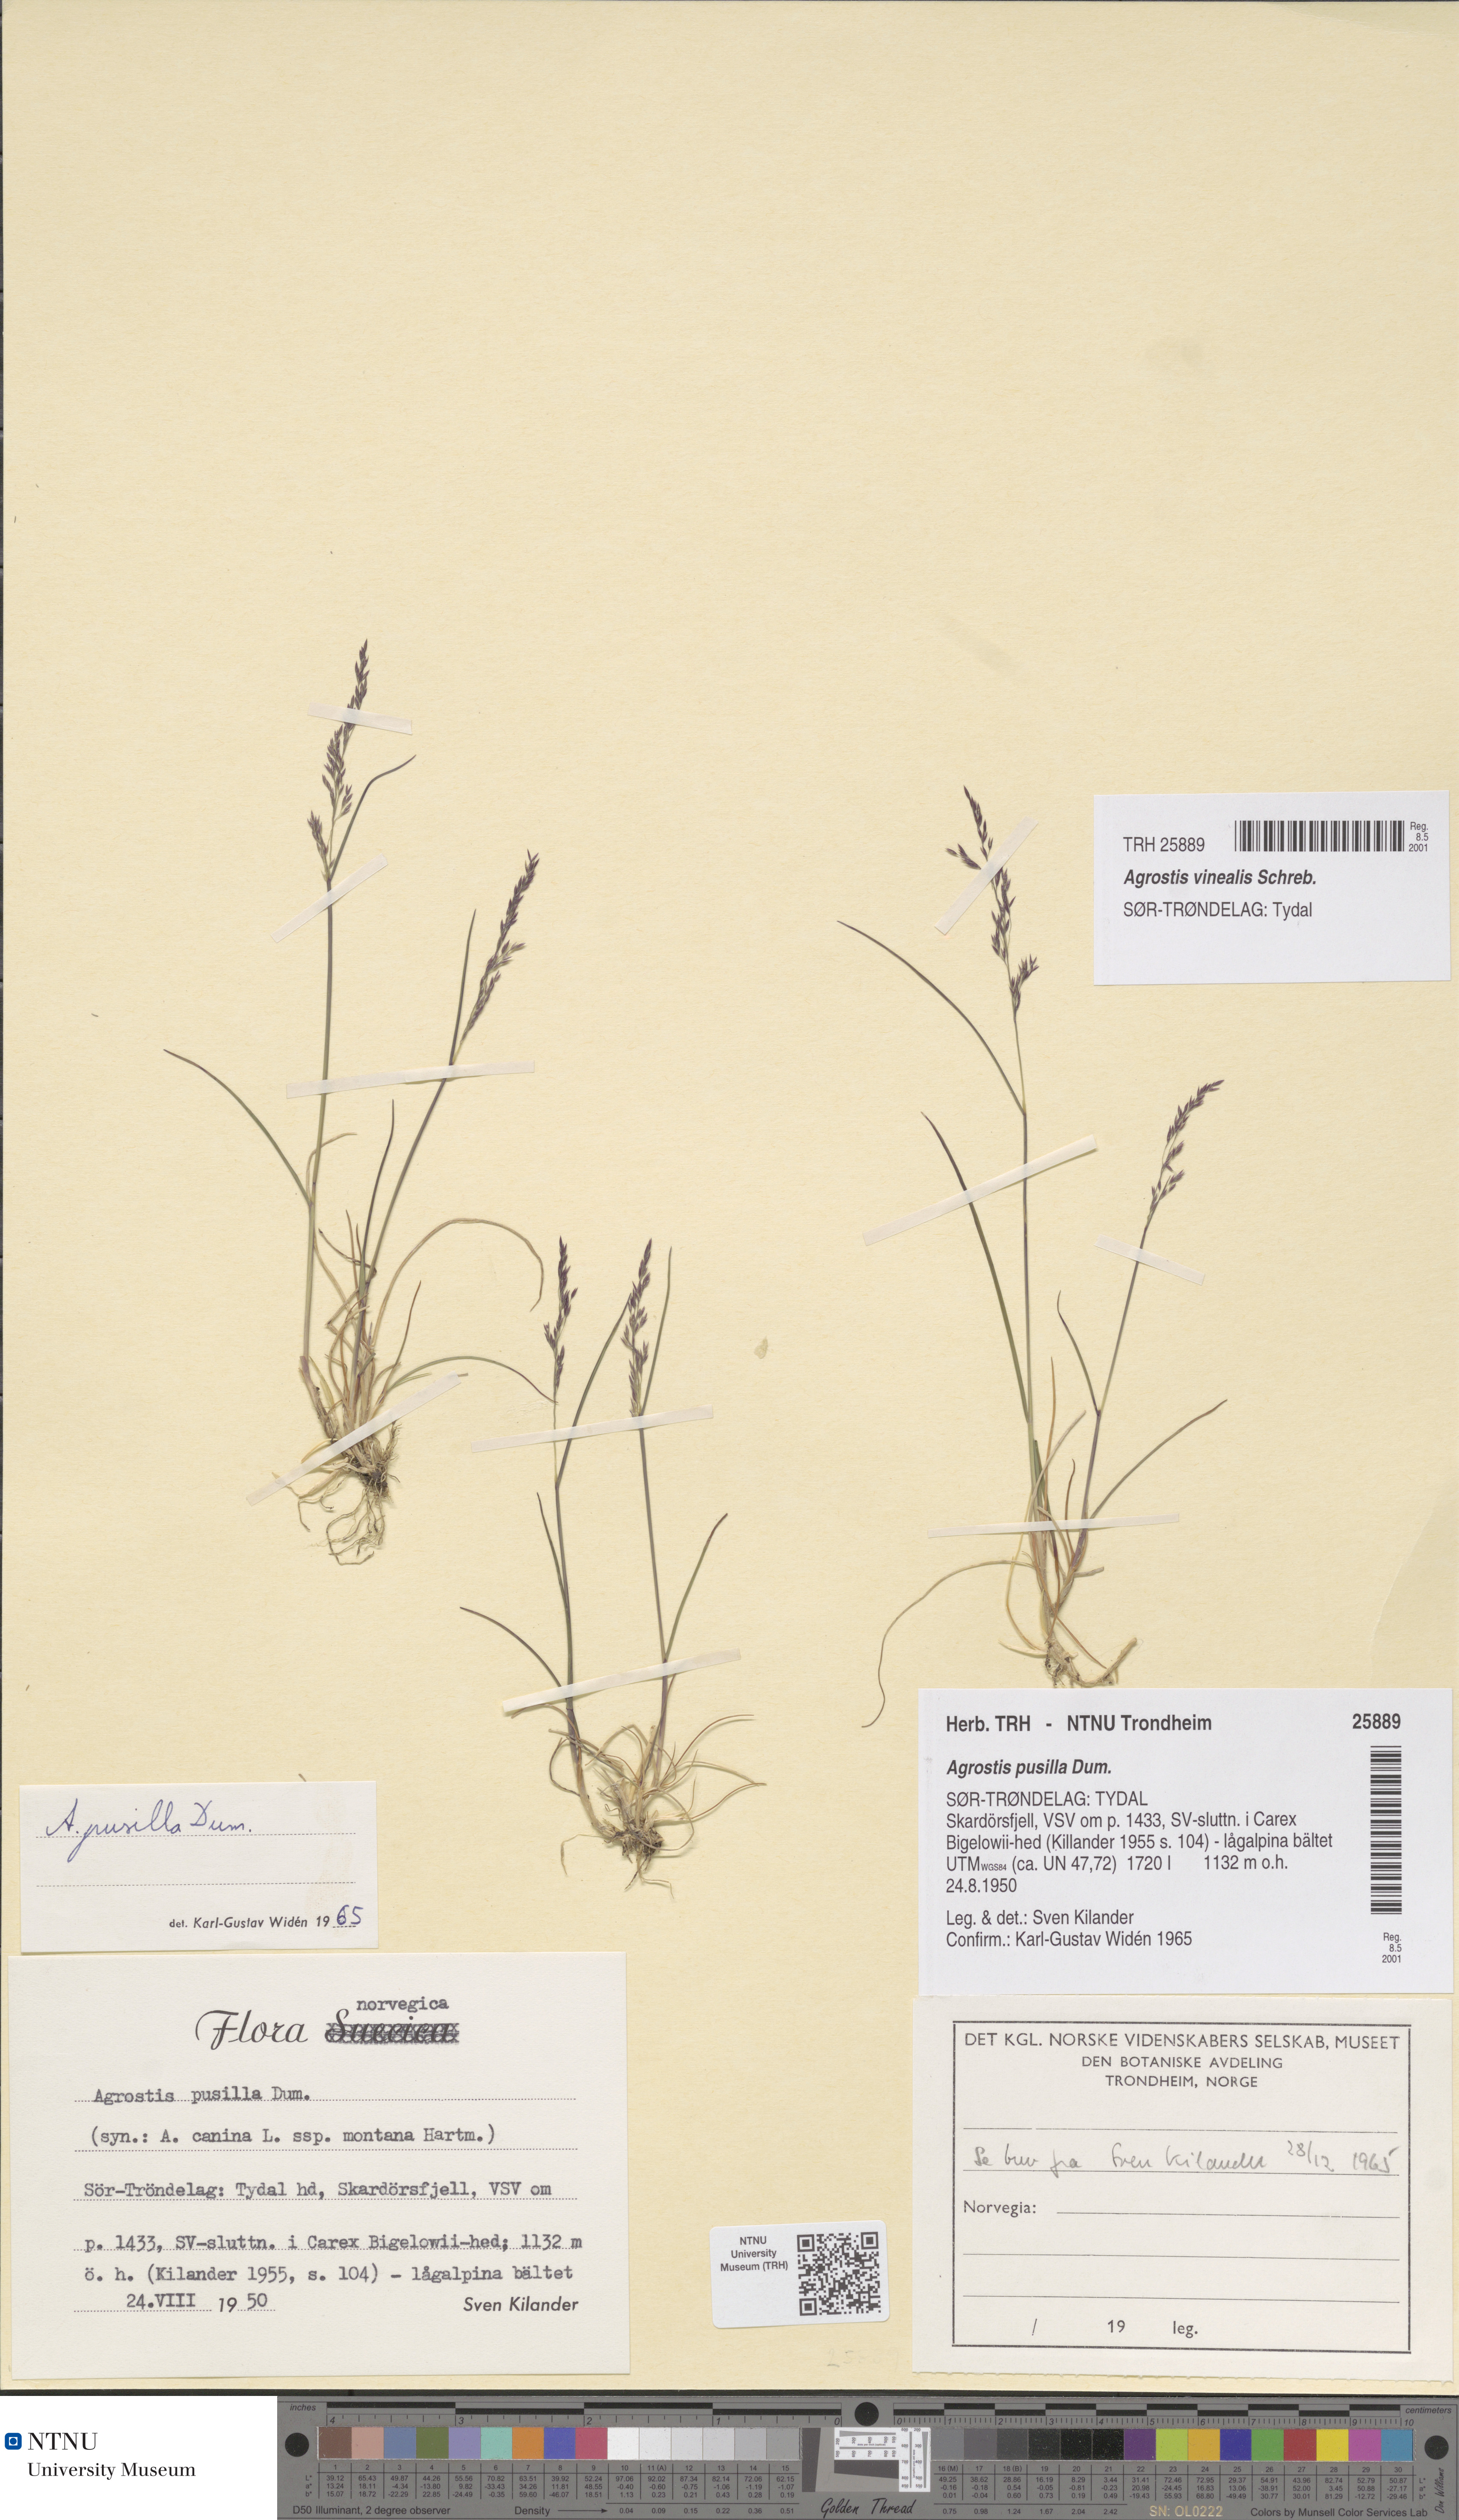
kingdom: Plantae
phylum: Tracheophyta
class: Liliopsida
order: Poales
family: Poaceae
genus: Agrostis
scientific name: Agrostis vinealis
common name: Brown bent
